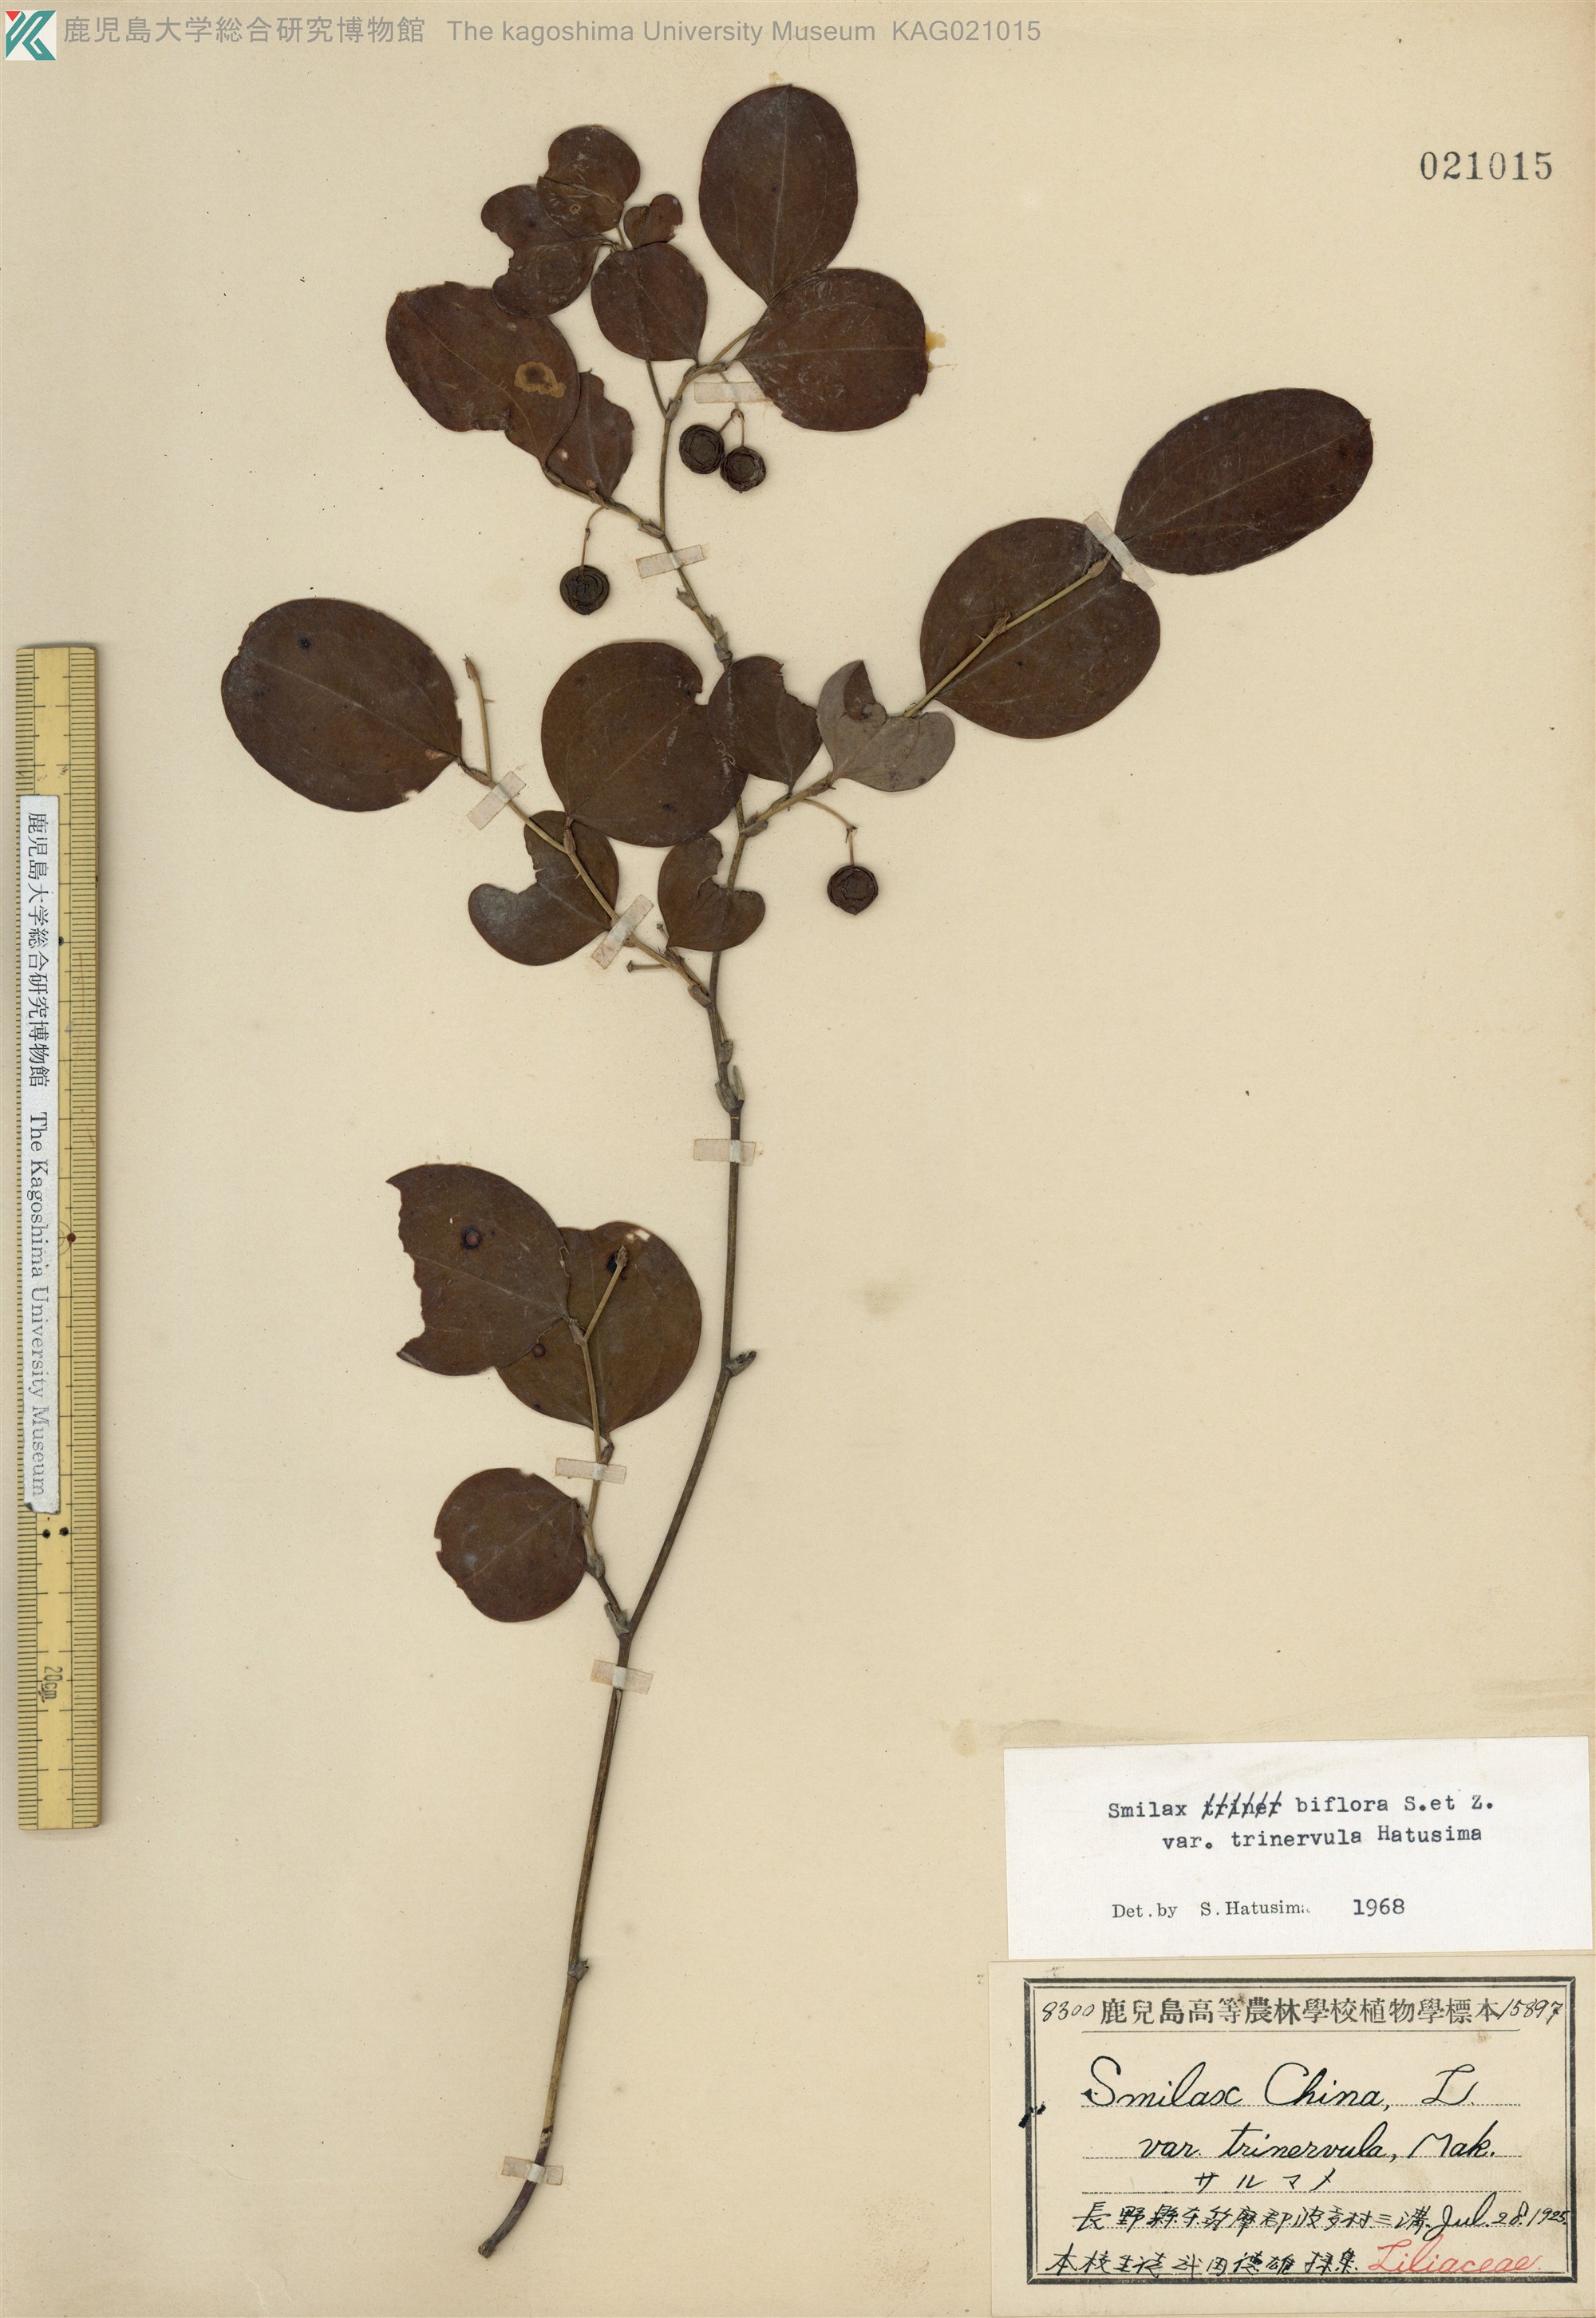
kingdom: Plantae
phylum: Tracheophyta
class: Liliopsida
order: Liliales
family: Smilacaceae
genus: Smilax
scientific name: Smilax trinervula
